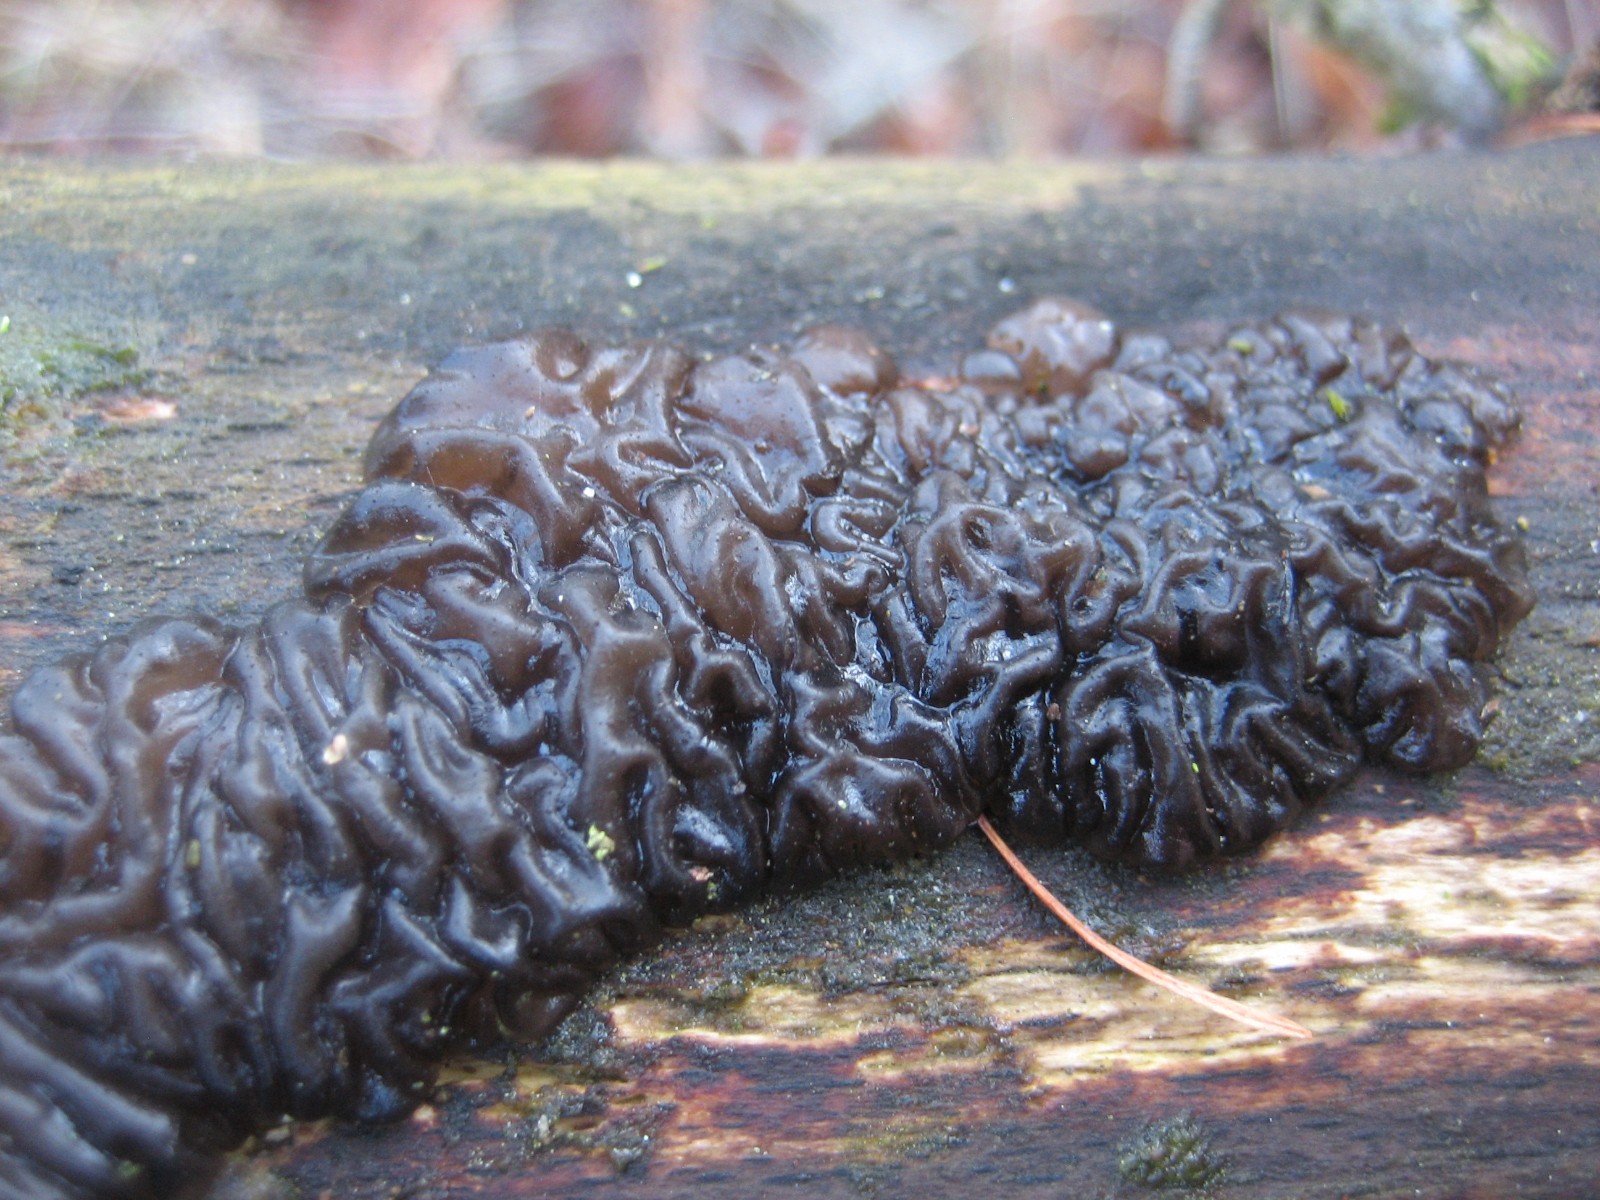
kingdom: Fungi
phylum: Basidiomycota
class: Agaricomycetes
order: Auriculariales
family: Auriculariaceae
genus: Exidia
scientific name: Exidia nigricans
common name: almindelig bævretop
